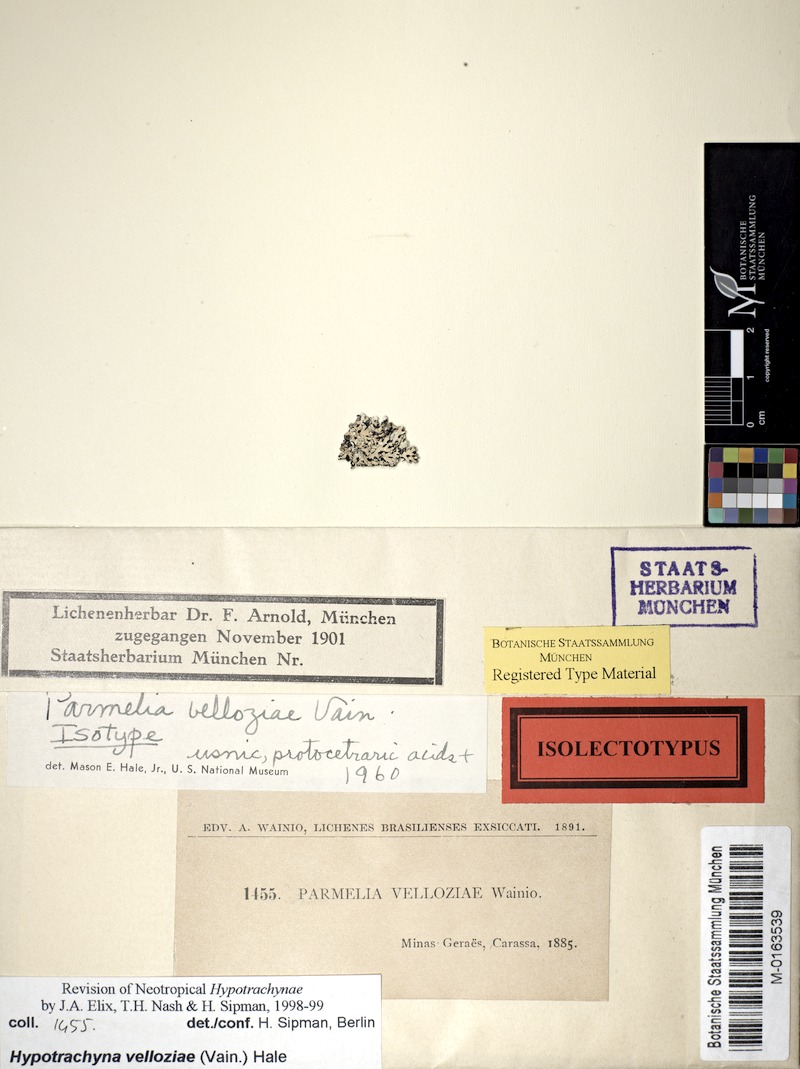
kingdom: Fungi
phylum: Ascomycota
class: Lecanoromycetes
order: Lecanorales
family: Parmeliaceae
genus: Hypotrachyna
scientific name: Hypotrachyna
